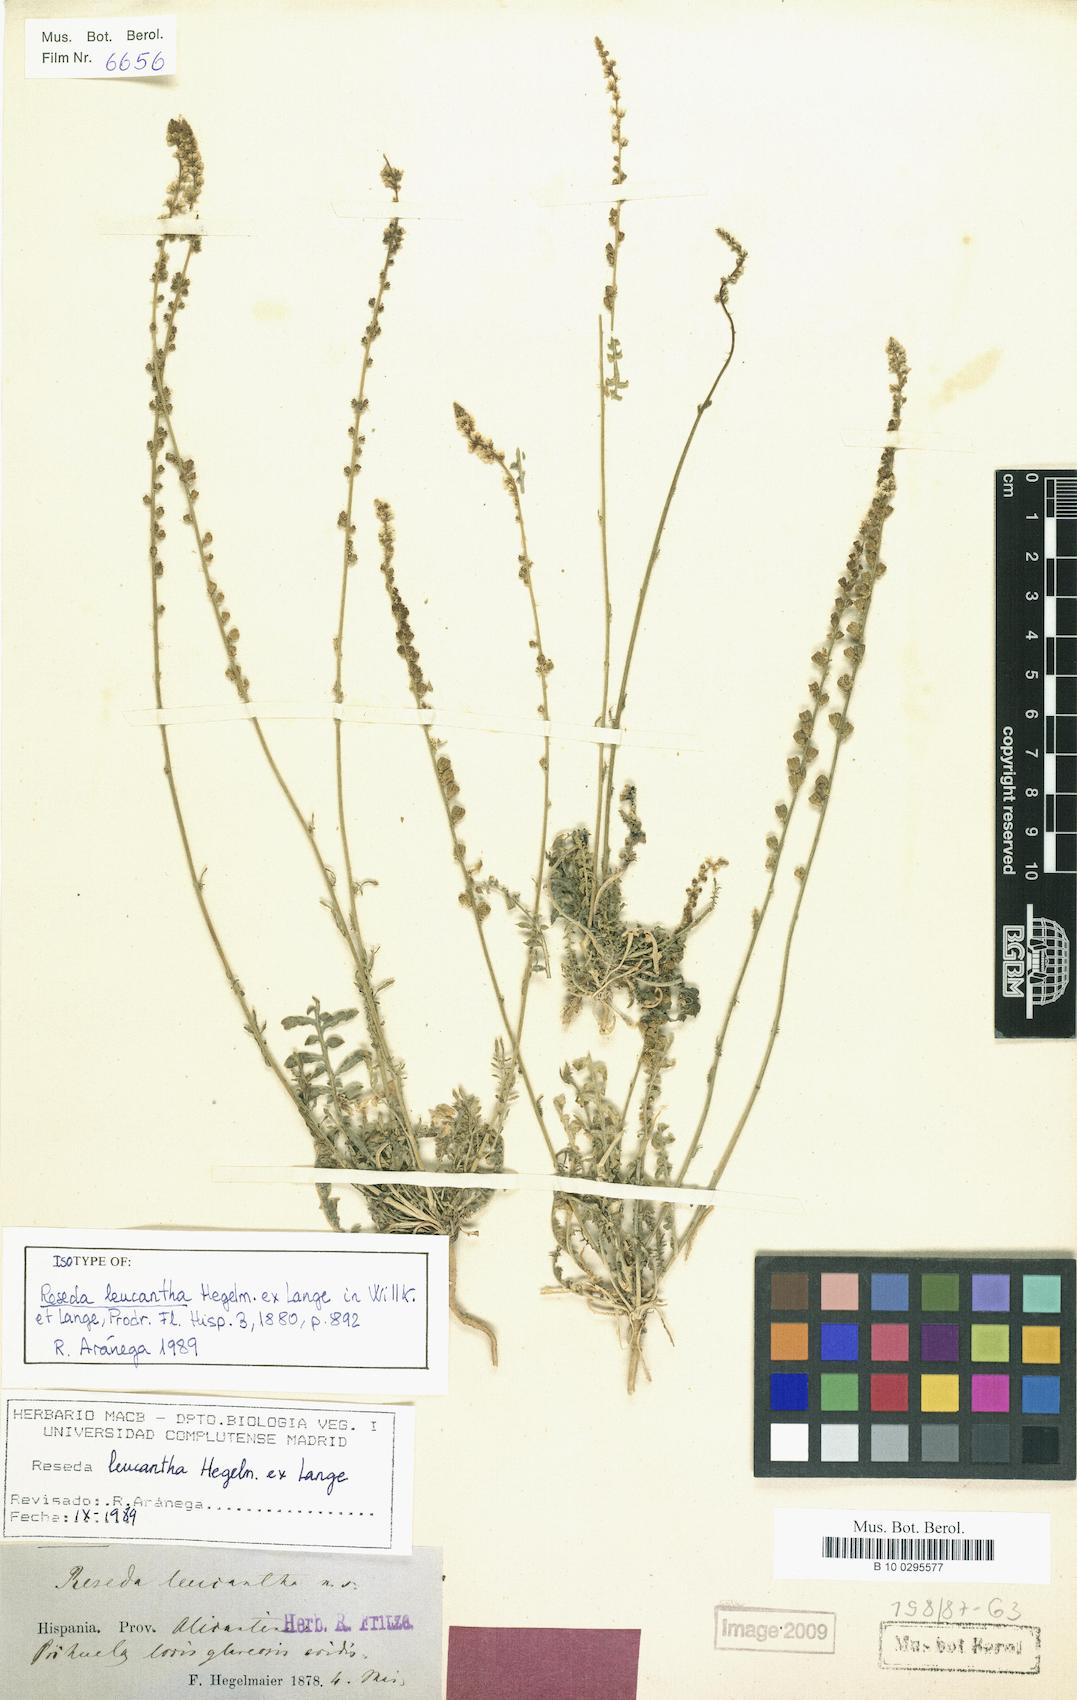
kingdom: Plantae
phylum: Tracheophyta
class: Magnoliopsida
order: Brassicales
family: Resedaceae
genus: Reseda
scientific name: Reseda undata
